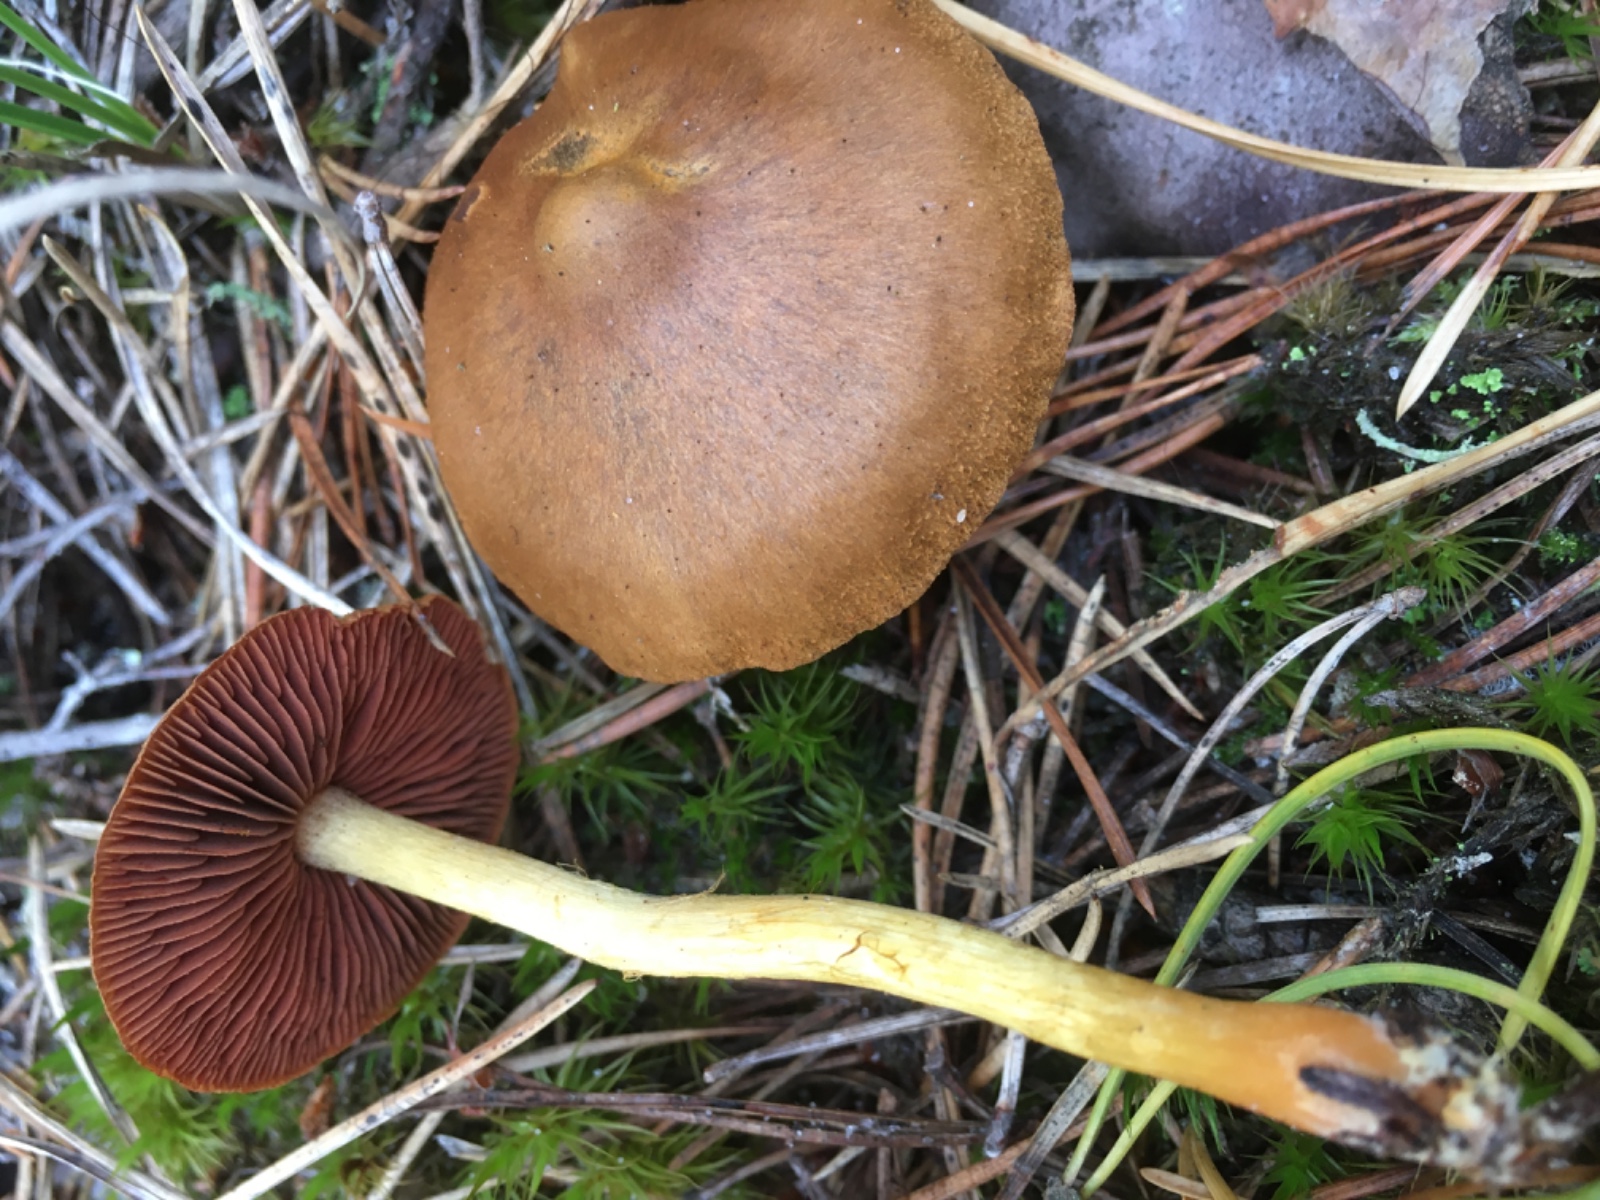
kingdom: Fungi
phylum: Basidiomycota
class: Agaricomycetes
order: Agaricales
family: Cortinariaceae
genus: Cortinarius
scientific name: Cortinarius
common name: cinnoberbladet slørhat
